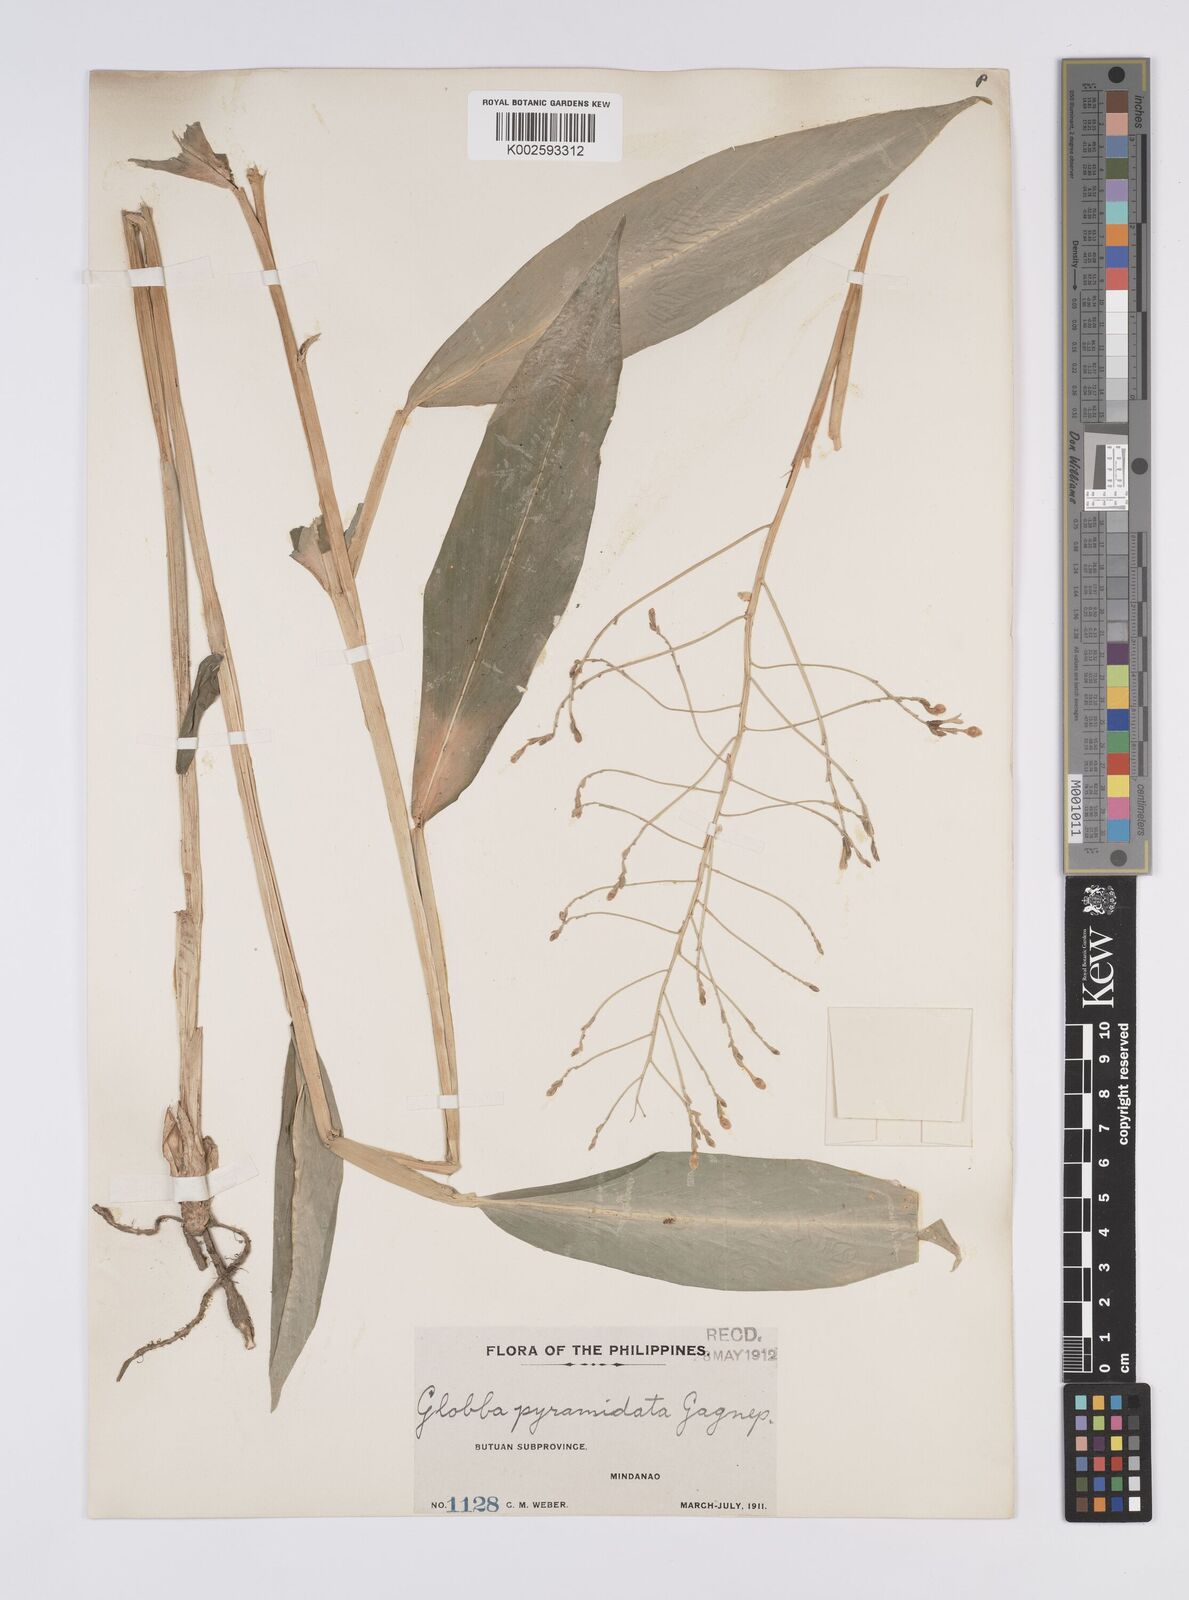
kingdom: Plantae
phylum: Tracheophyta
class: Liliopsida
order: Zingiberales
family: Zingiberaceae
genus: Globba
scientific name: Globba pyramidata
